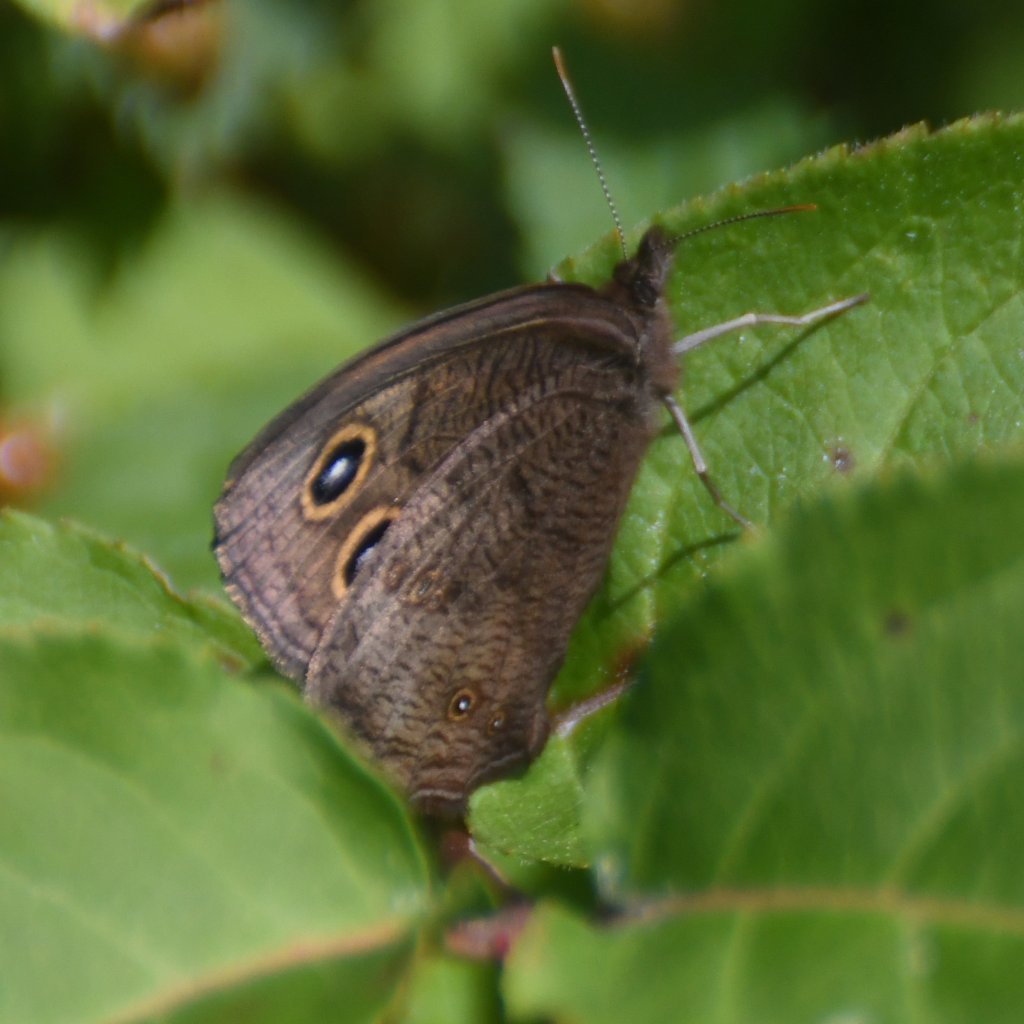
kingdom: Animalia
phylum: Arthropoda
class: Insecta
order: Lepidoptera
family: Nymphalidae
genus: Cercyonis
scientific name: Cercyonis pegala
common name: Common Wood-Nymph
